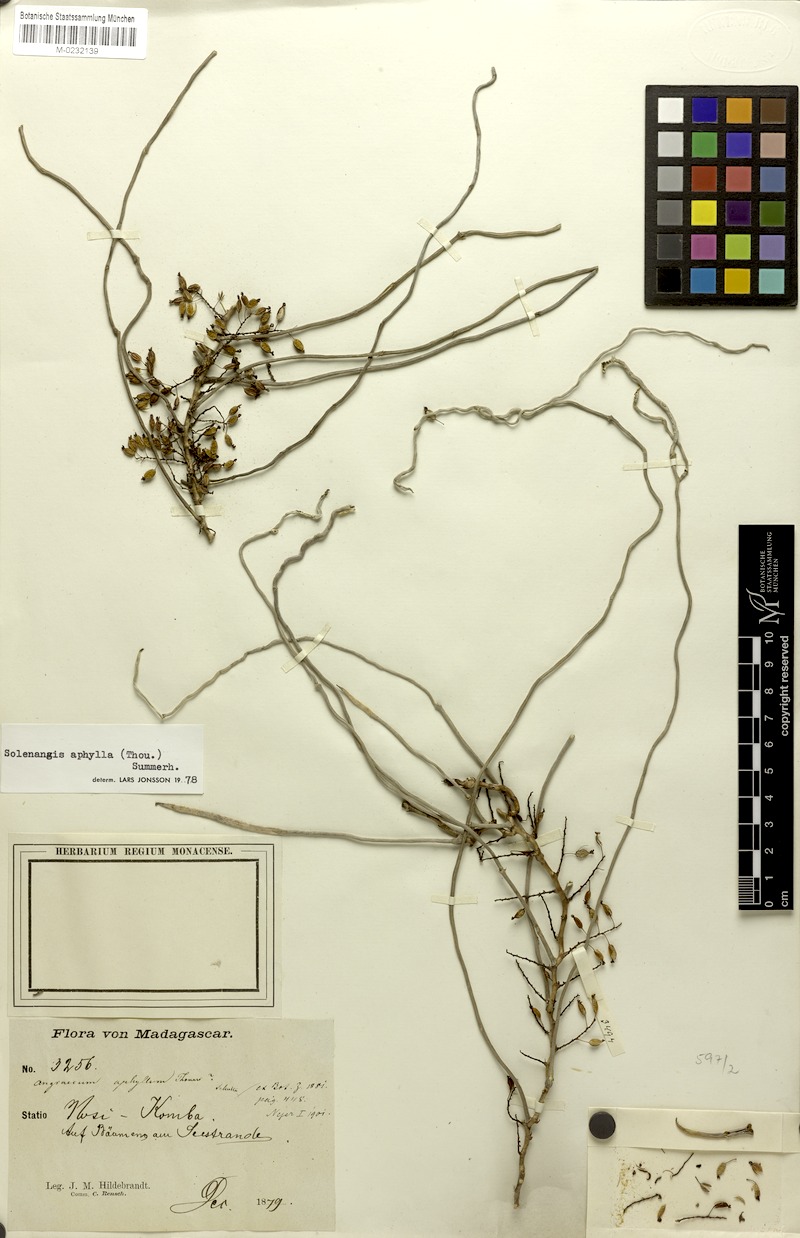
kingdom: Plantae
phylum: Tracheophyta
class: Liliopsida
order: Asparagales
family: Orchidaceae
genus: Microcoelia
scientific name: Microcoelia aphylla
